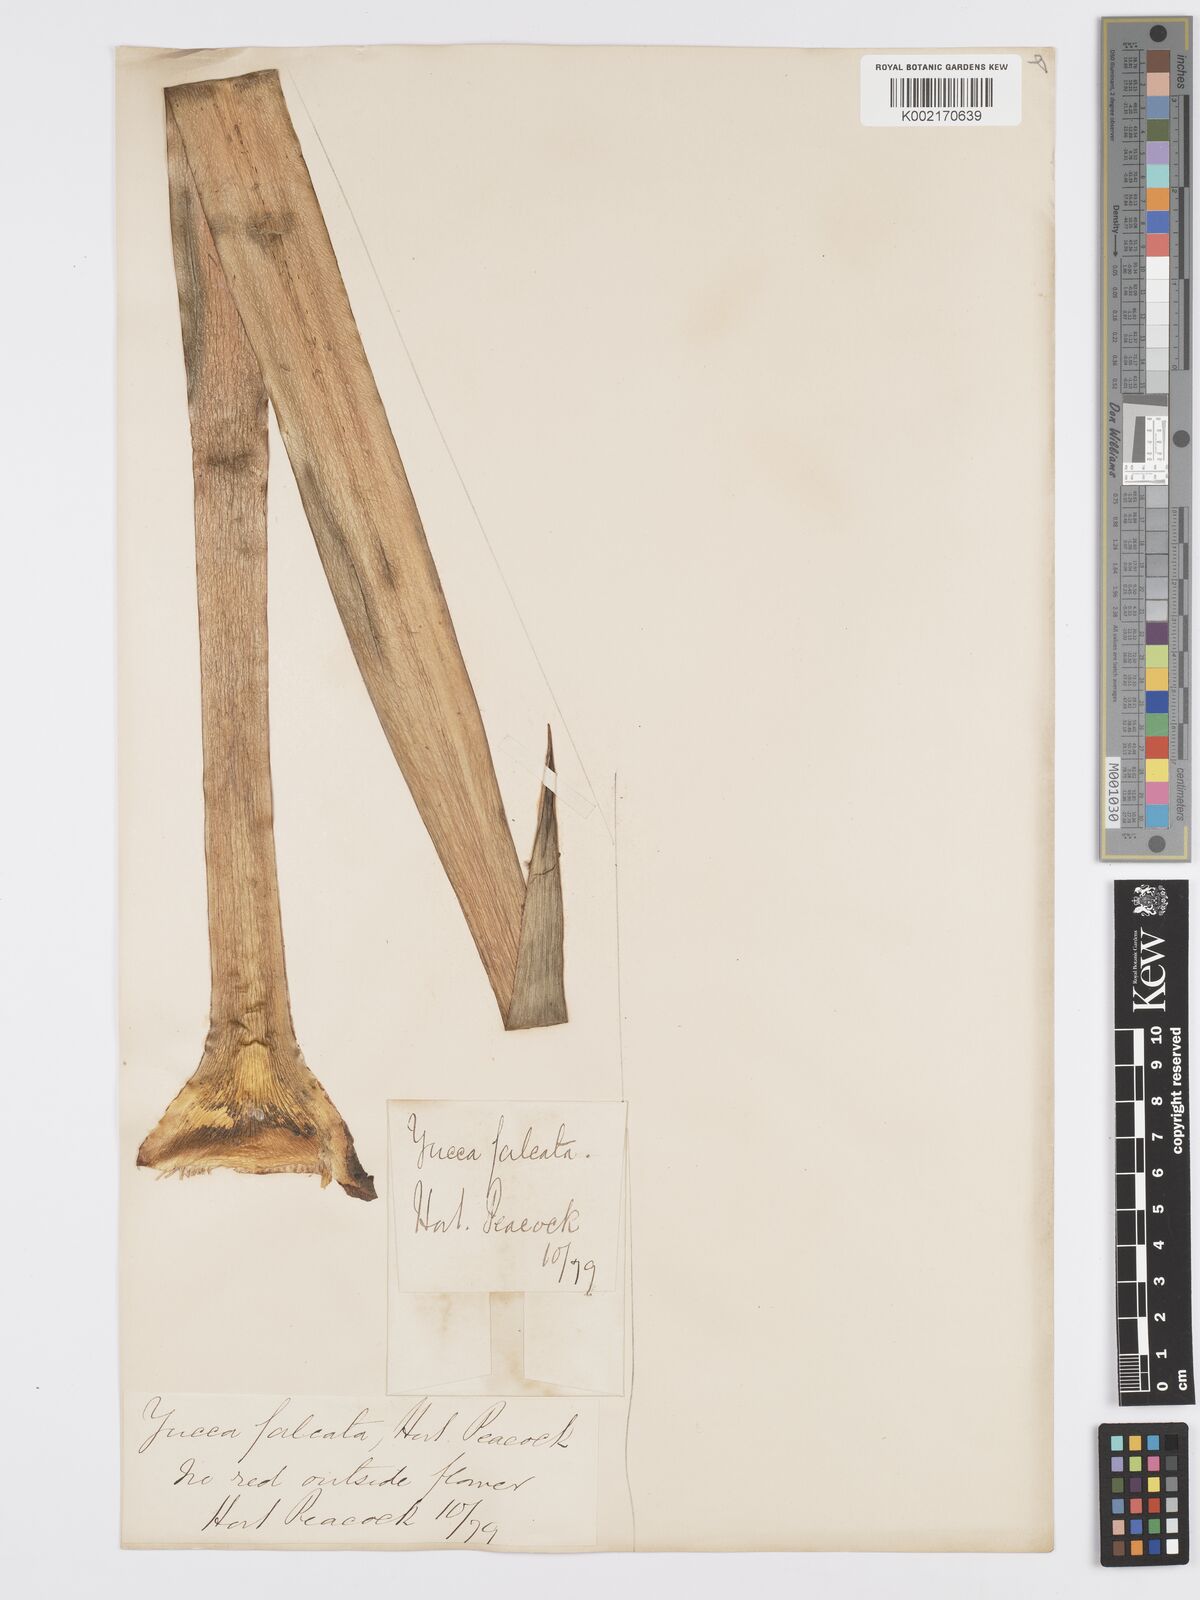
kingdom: Plantae
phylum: Tracheophyta
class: Liliopsida
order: Asparagales
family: Asparagaceae
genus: Yucca
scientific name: Yucca gloriosa
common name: Spanish-dagger
